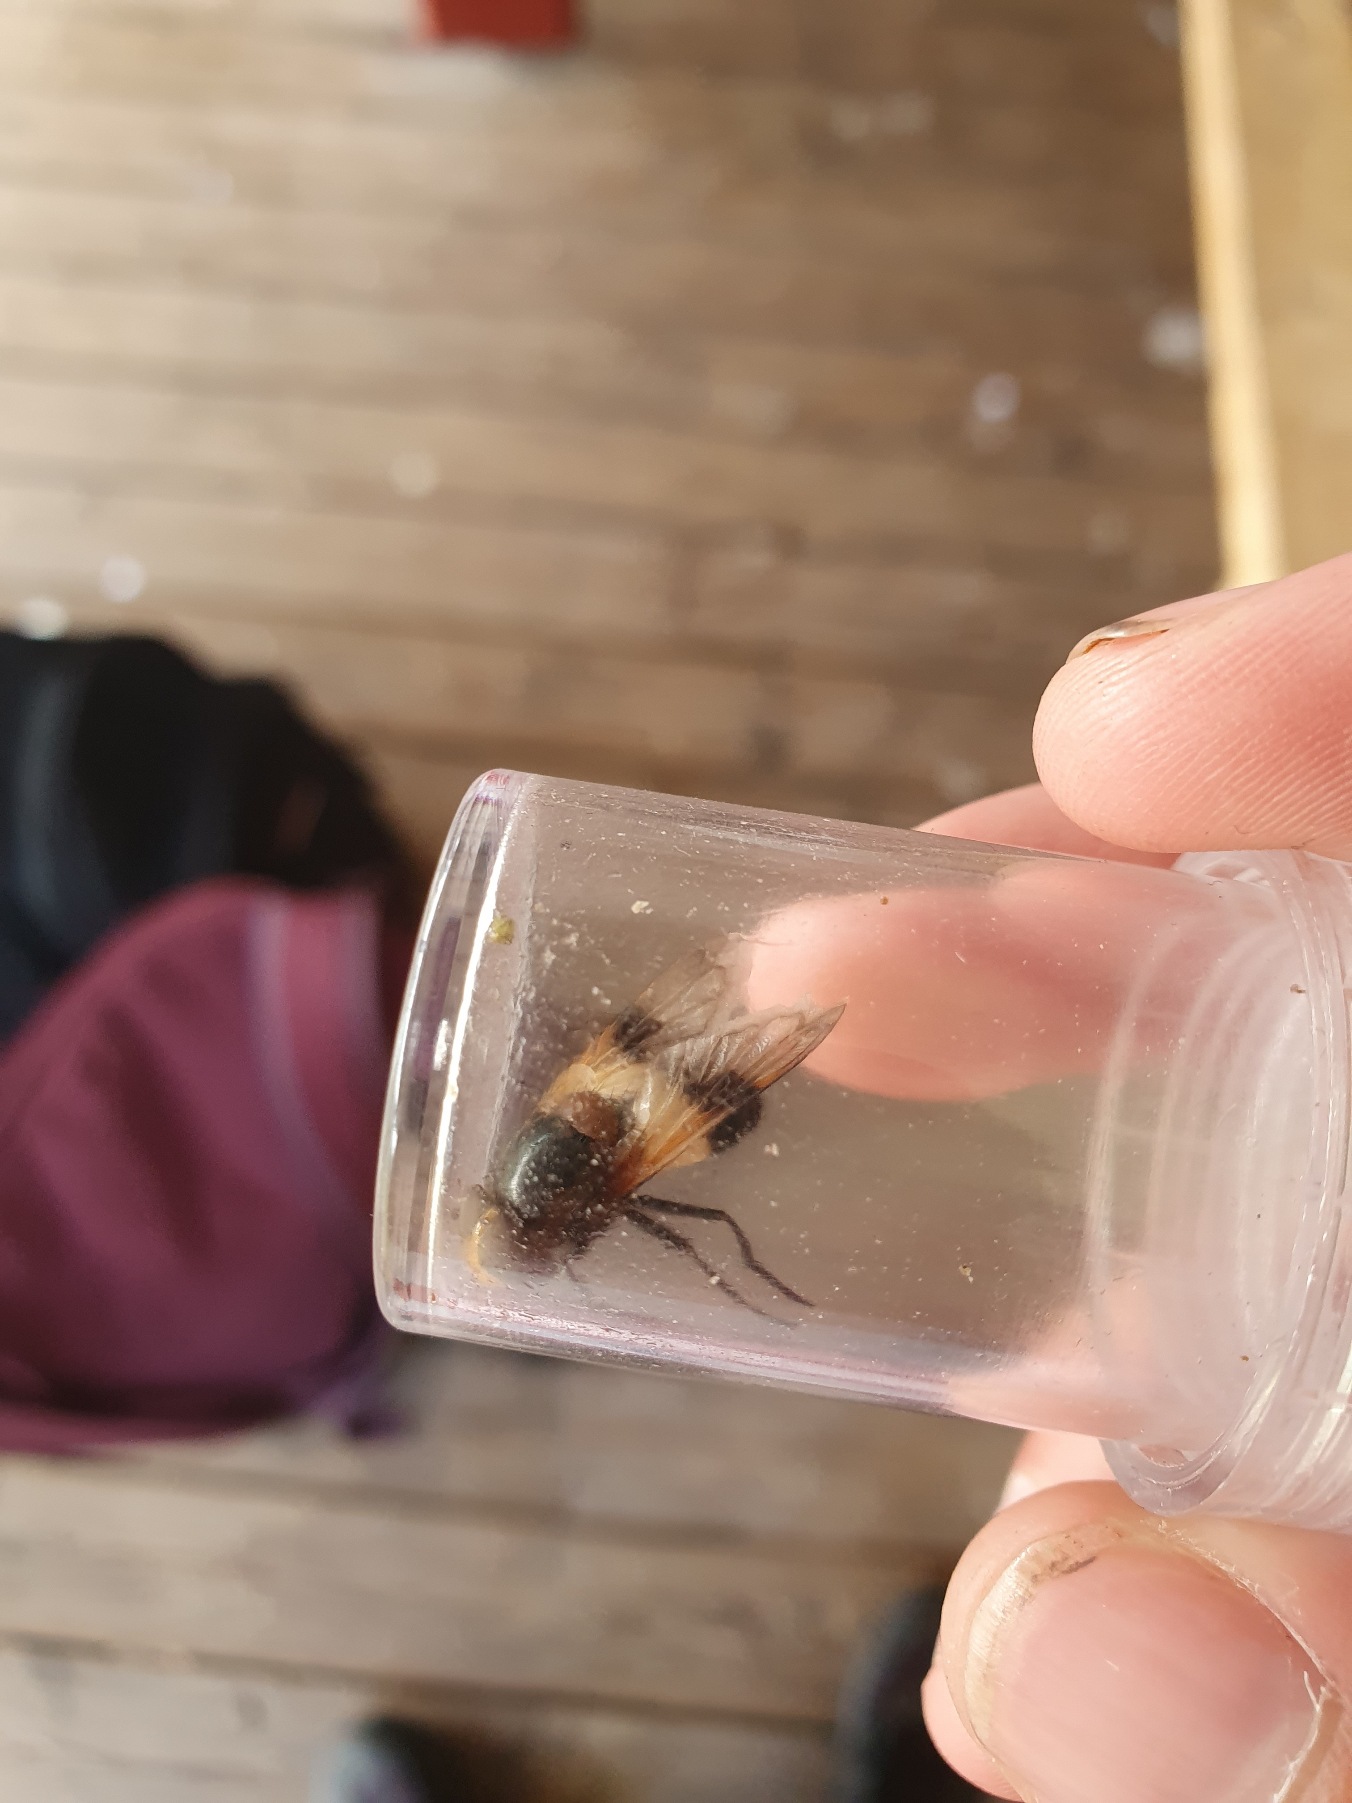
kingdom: Animalia
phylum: Arthropoda
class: Insecta
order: Diptera
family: Syrphidae
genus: Volucella
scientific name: Volucella pellucens
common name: Hvidbåndet humlesvirreflue
